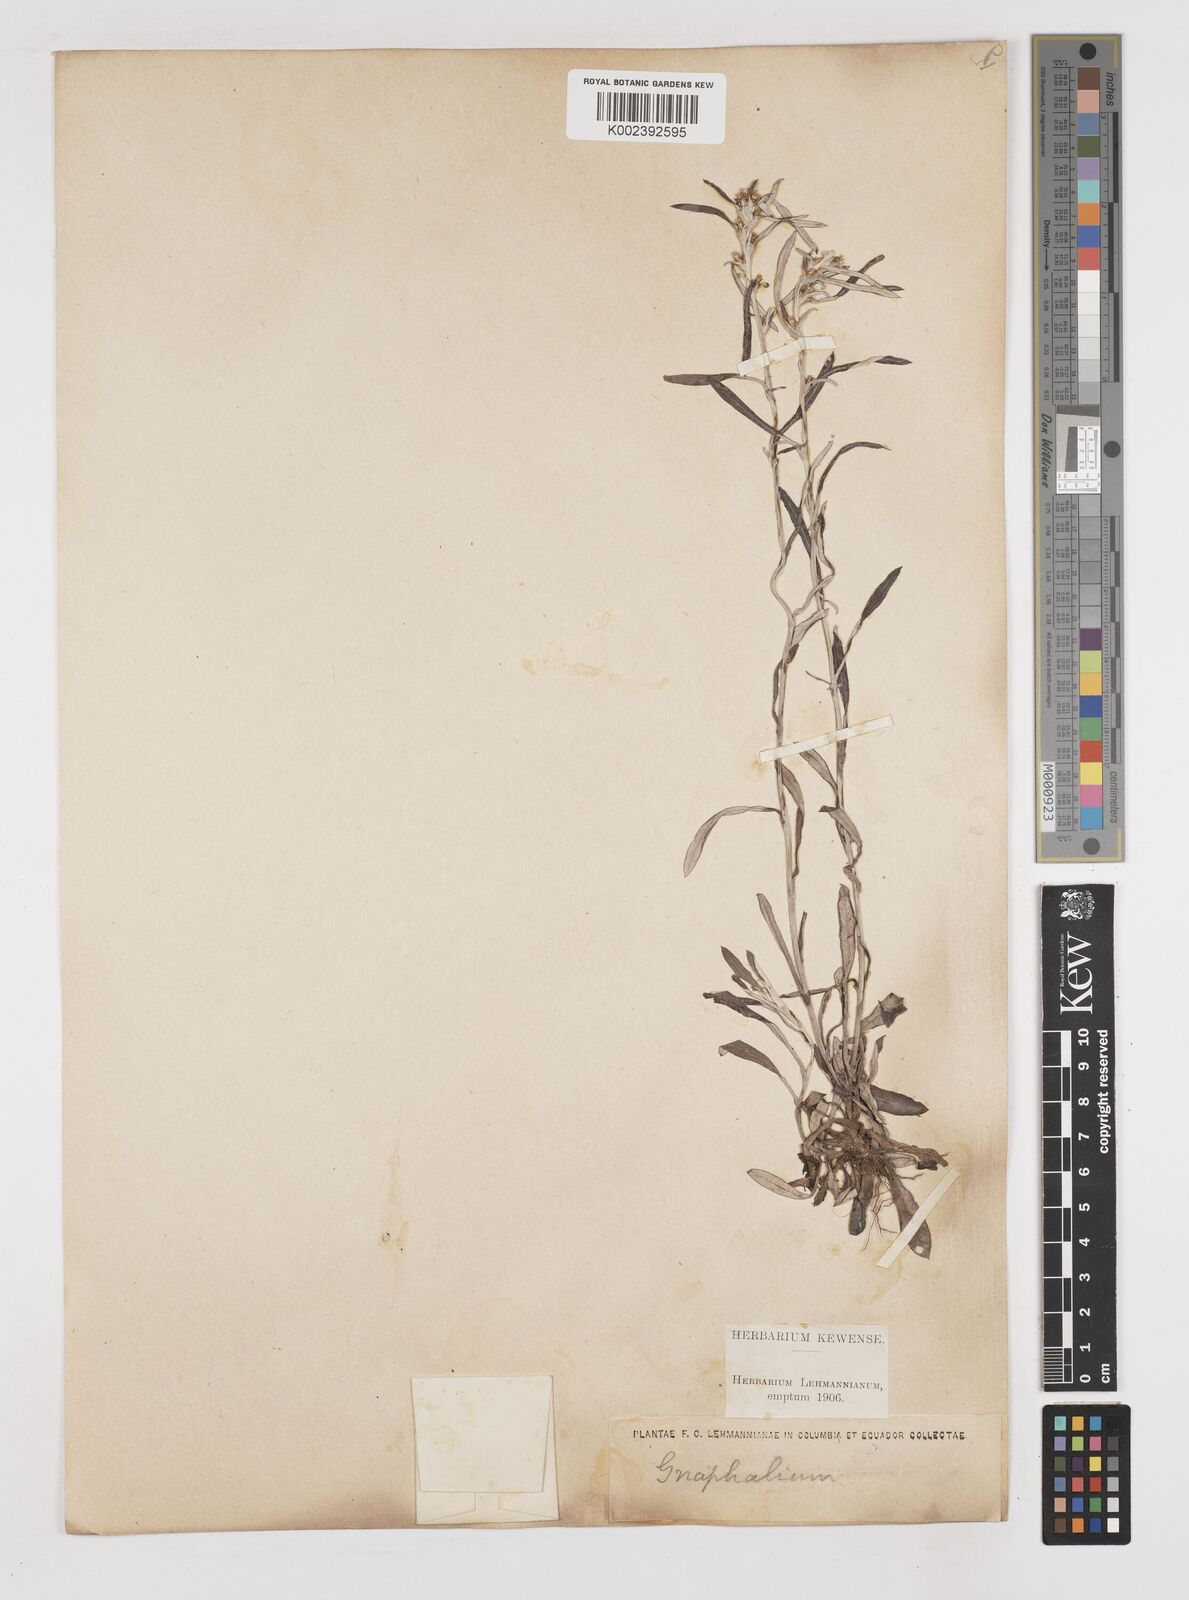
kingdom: Plantae
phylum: Tracheophyta
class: Magnoliopsida
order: Asterales
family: Asteraceae
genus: Gamochaeta
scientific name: Gamochaeta americana
